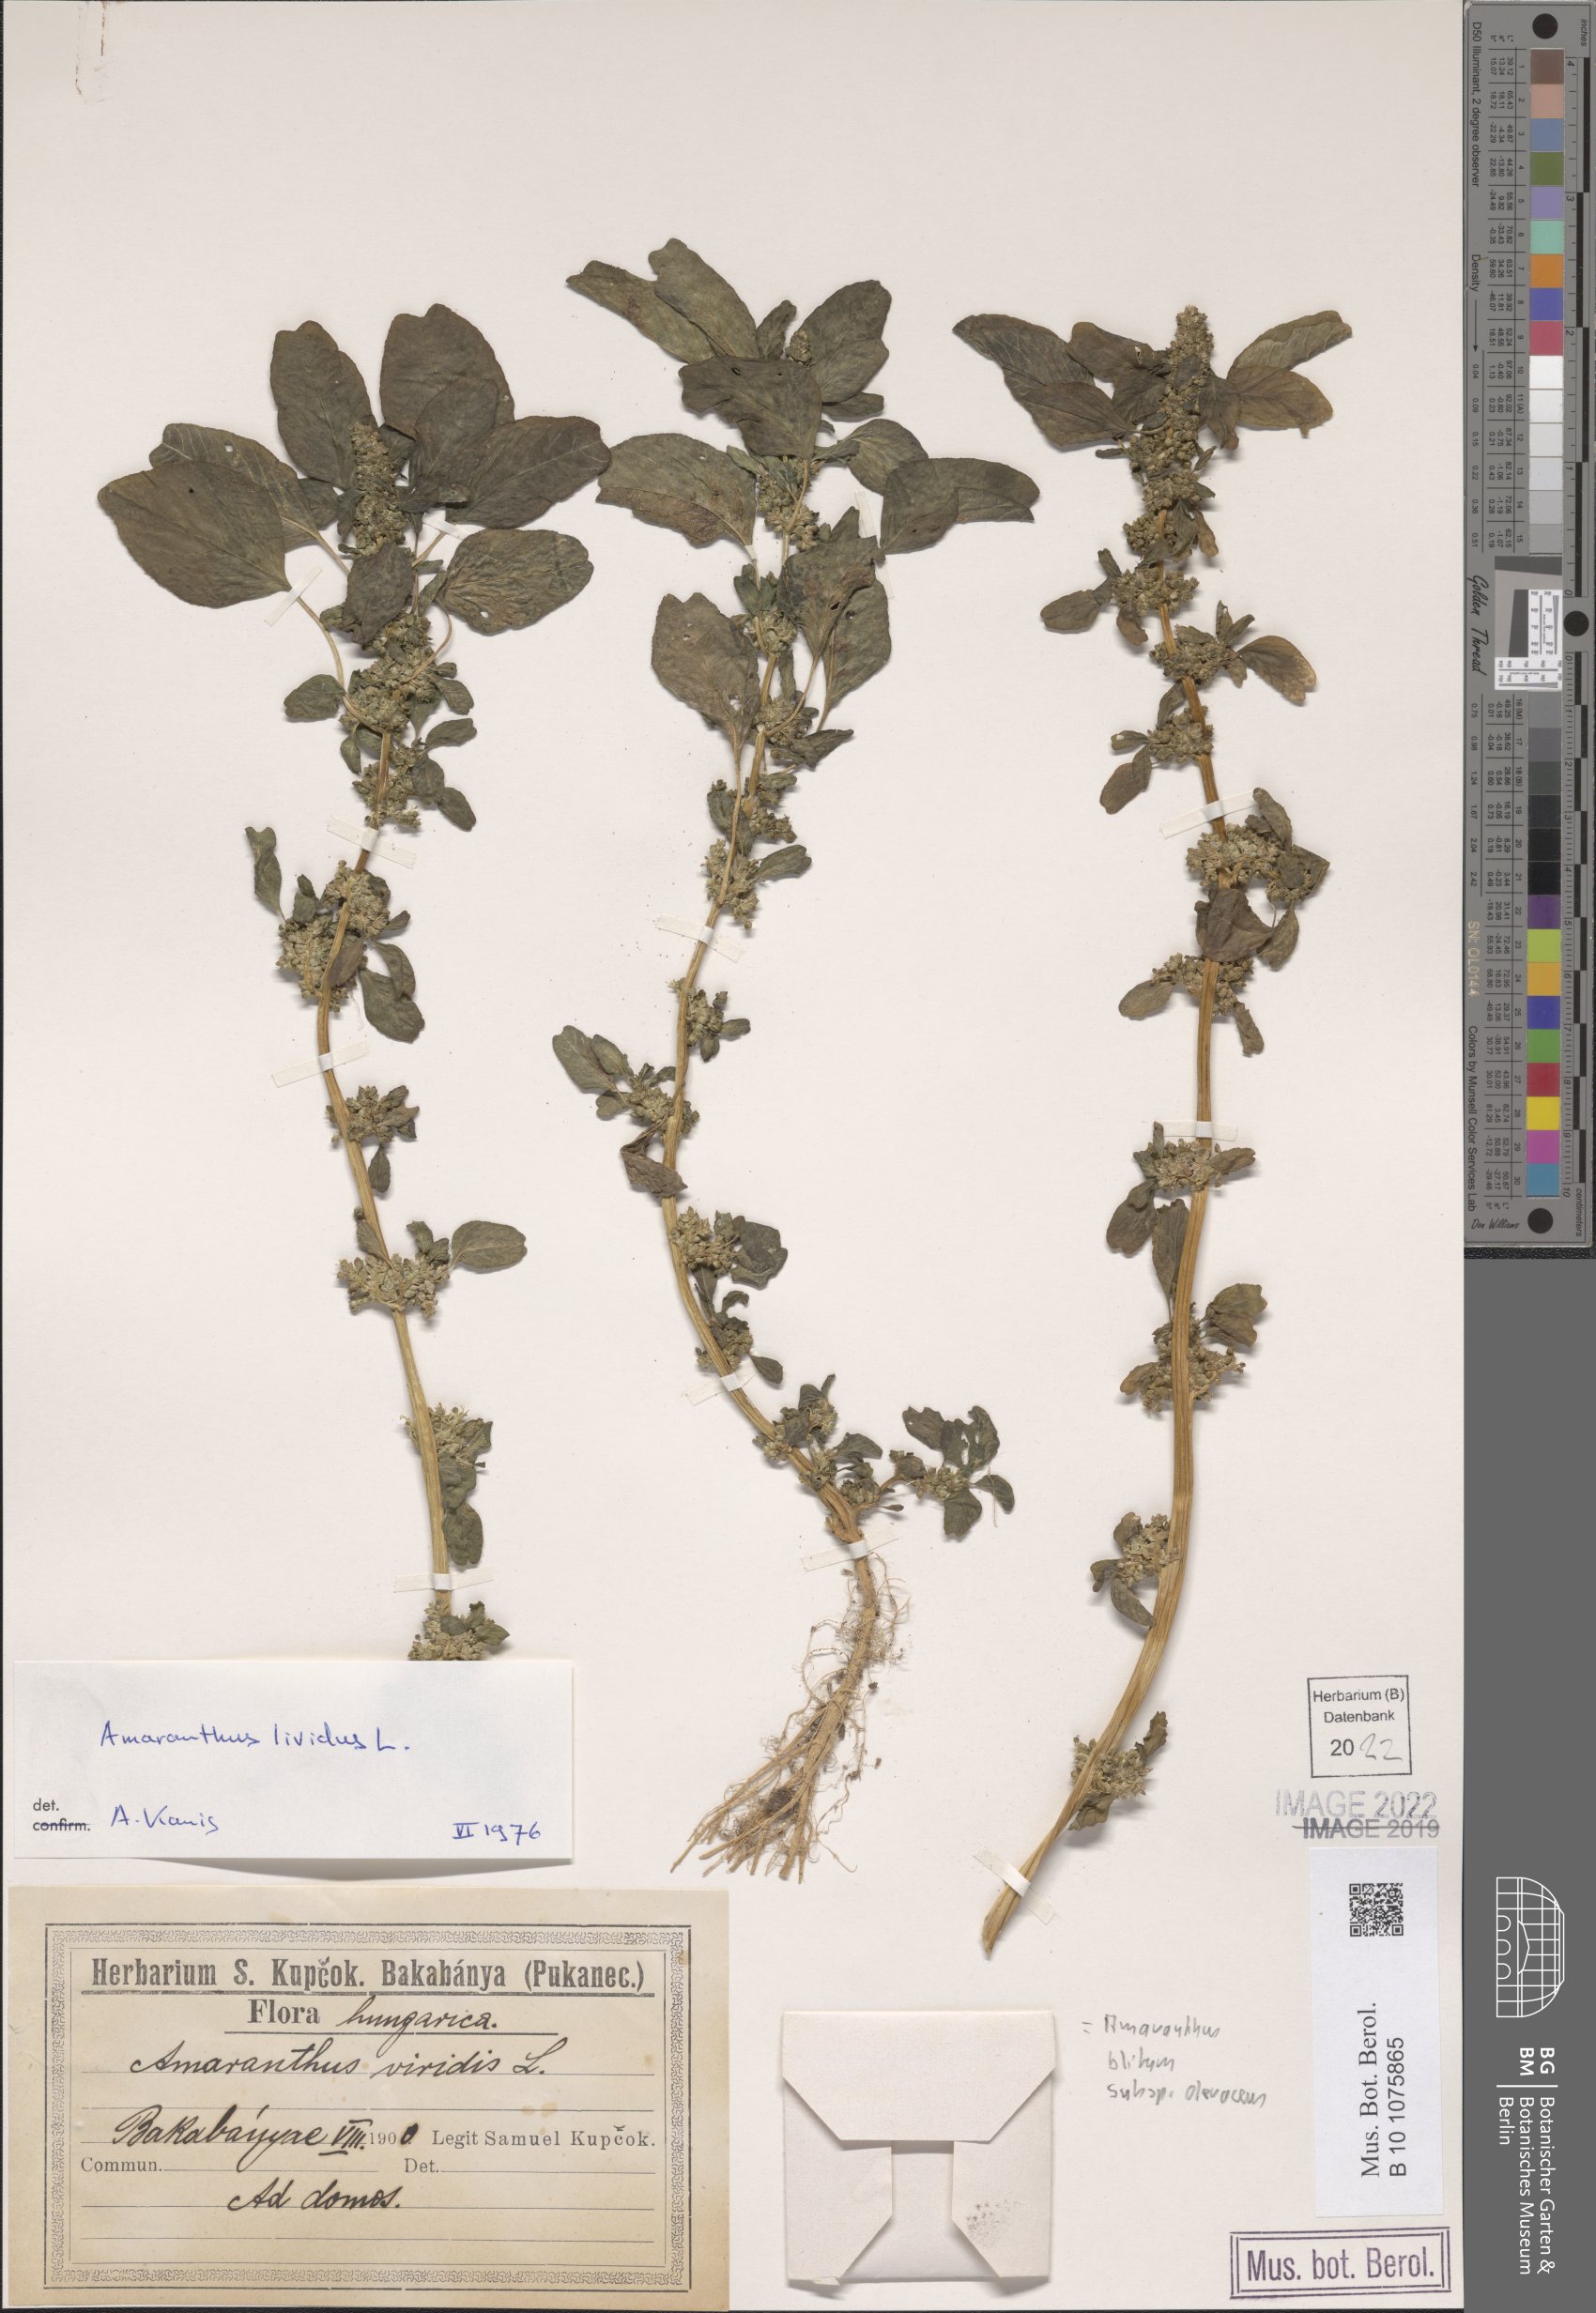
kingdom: Plantae
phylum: Tracheophyta
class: Magnoliopsida
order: Caryophyllales
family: Amaranthaceae
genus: Amaranthus
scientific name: Amaranthus blitum
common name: Purple amaranth
